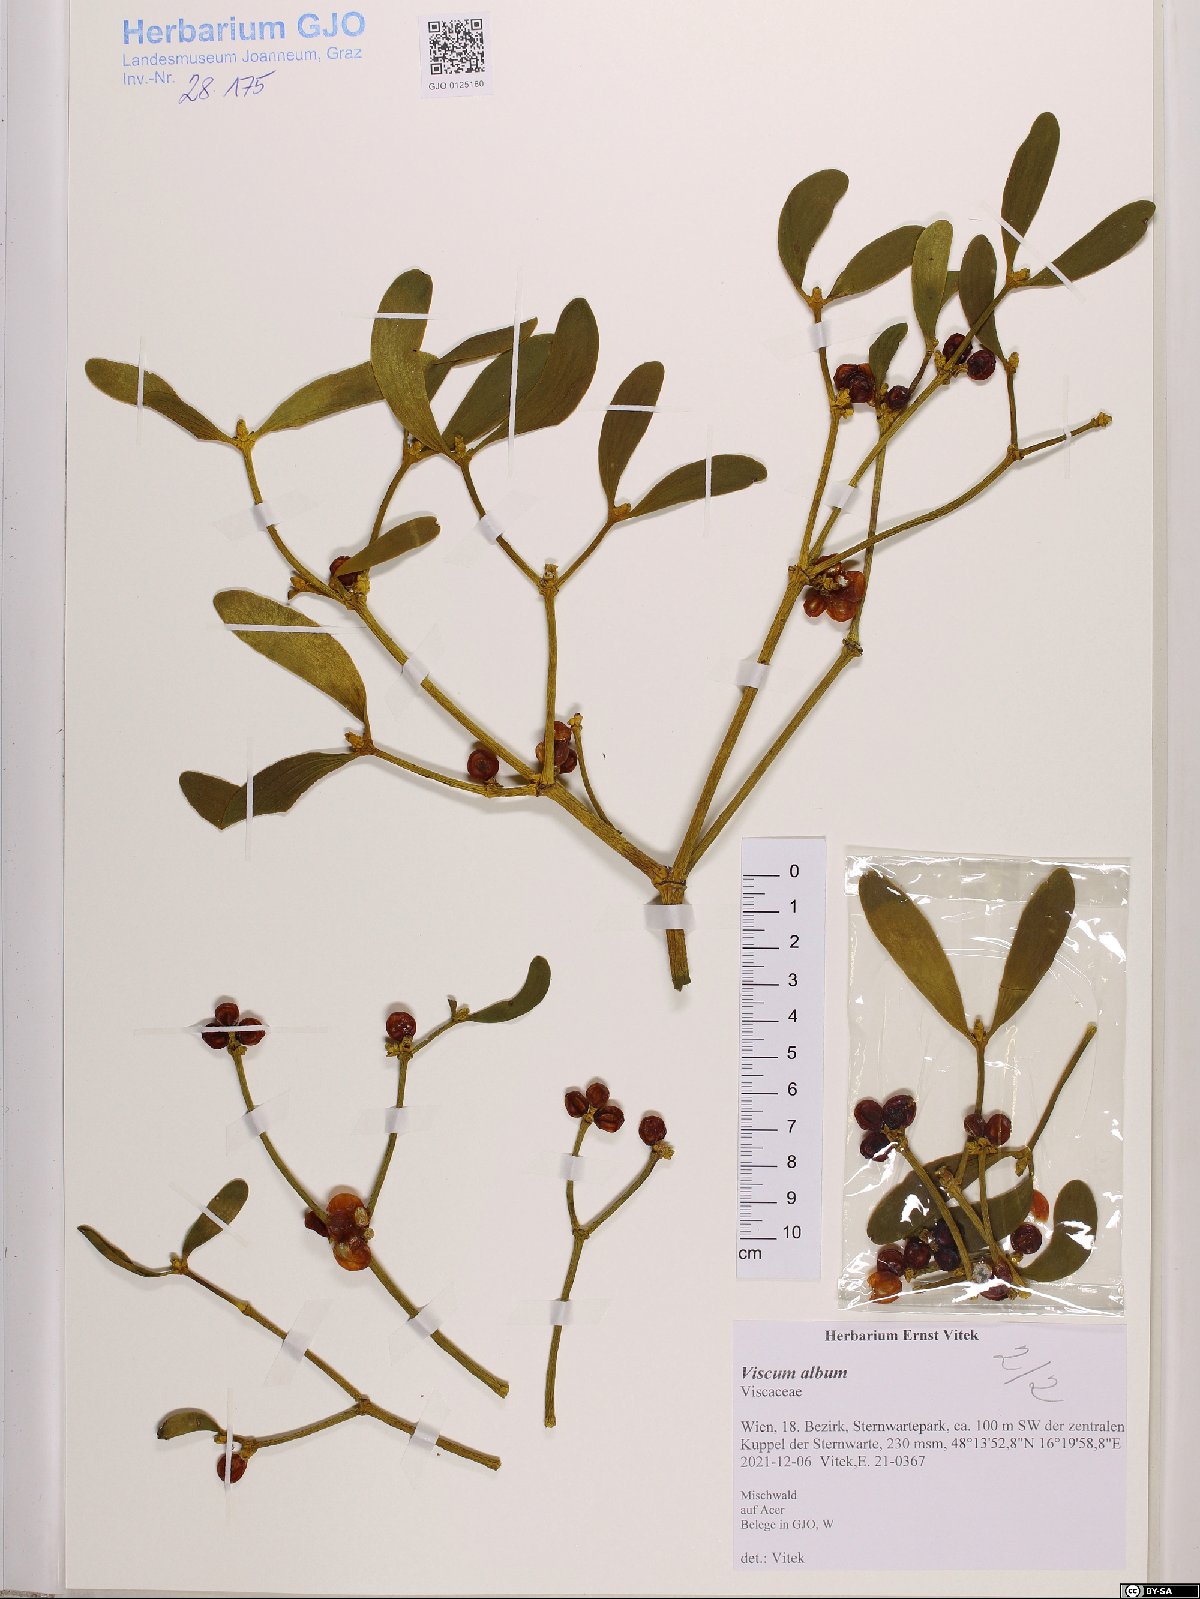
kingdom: Plantae
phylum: Tracheophyta
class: Magnoliopsida
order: Santalales
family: Viscaceae
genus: Viscum
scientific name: Viscum album
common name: Mistletoe
